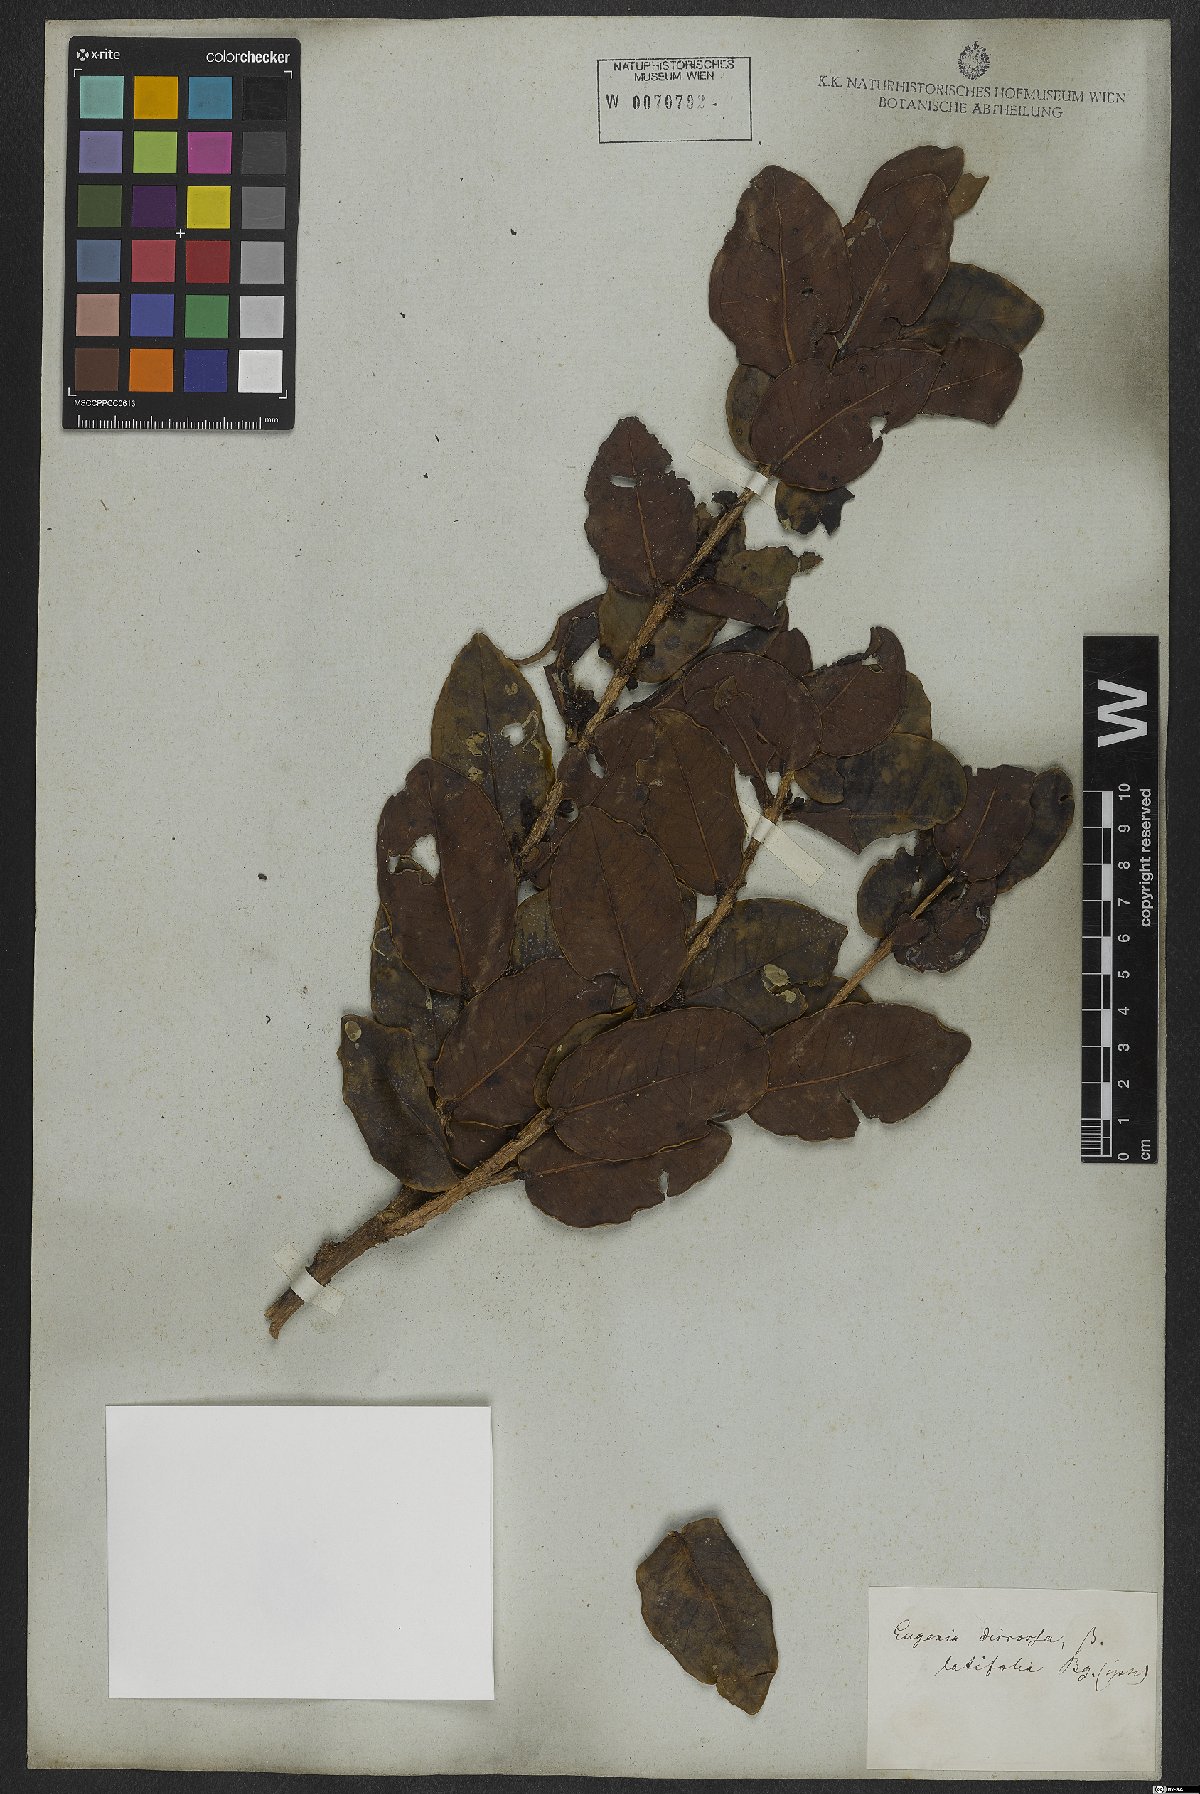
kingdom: Plantae
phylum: Tracheophyta
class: Magnoliopsida
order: Myrtales
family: Myrtaceae
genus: Eugenia
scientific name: Eugenia bimarginata
